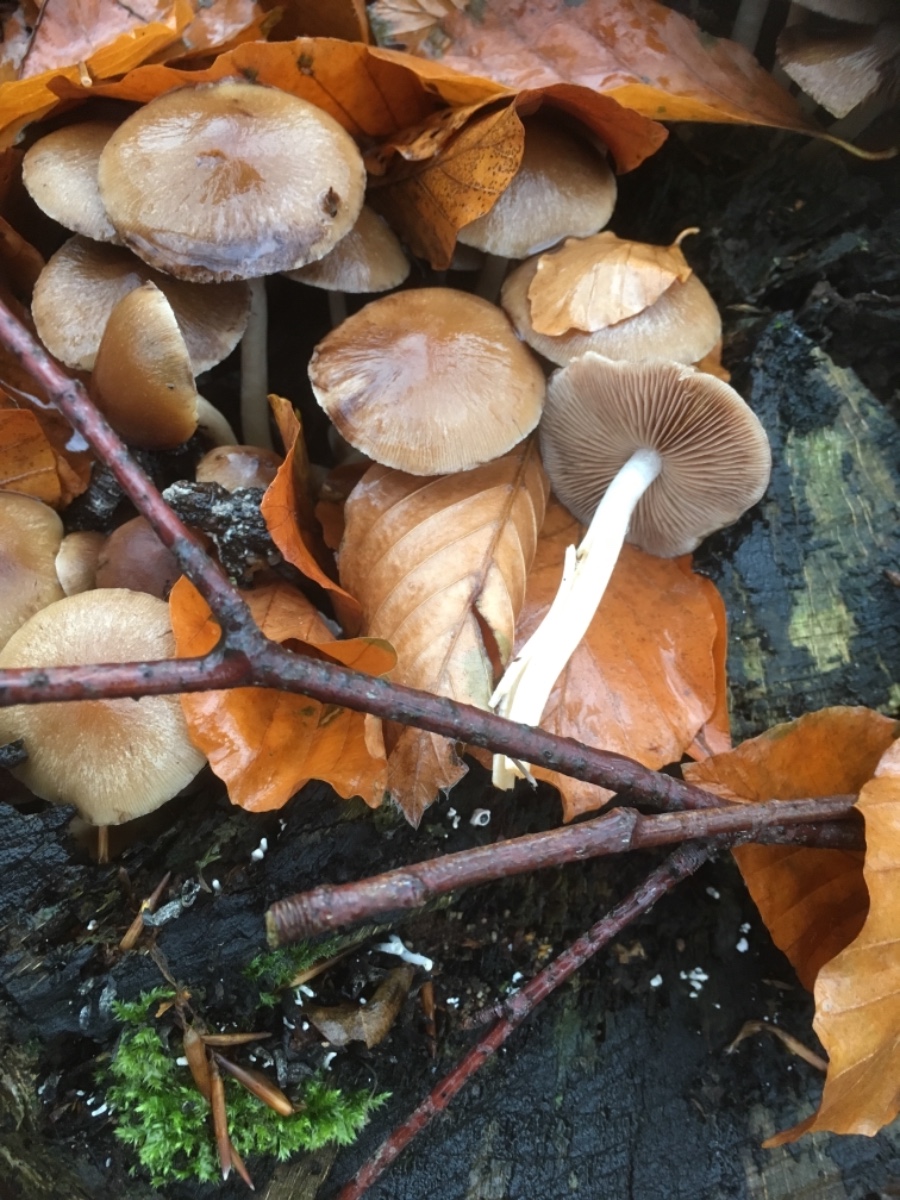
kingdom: Fungi
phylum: Basidiomycota
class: Agaricomycetes
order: Agaricales
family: Psathyrellaceae
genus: Psathyrella
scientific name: Psathyrella piluliformis
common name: lysstokket mørkhat
